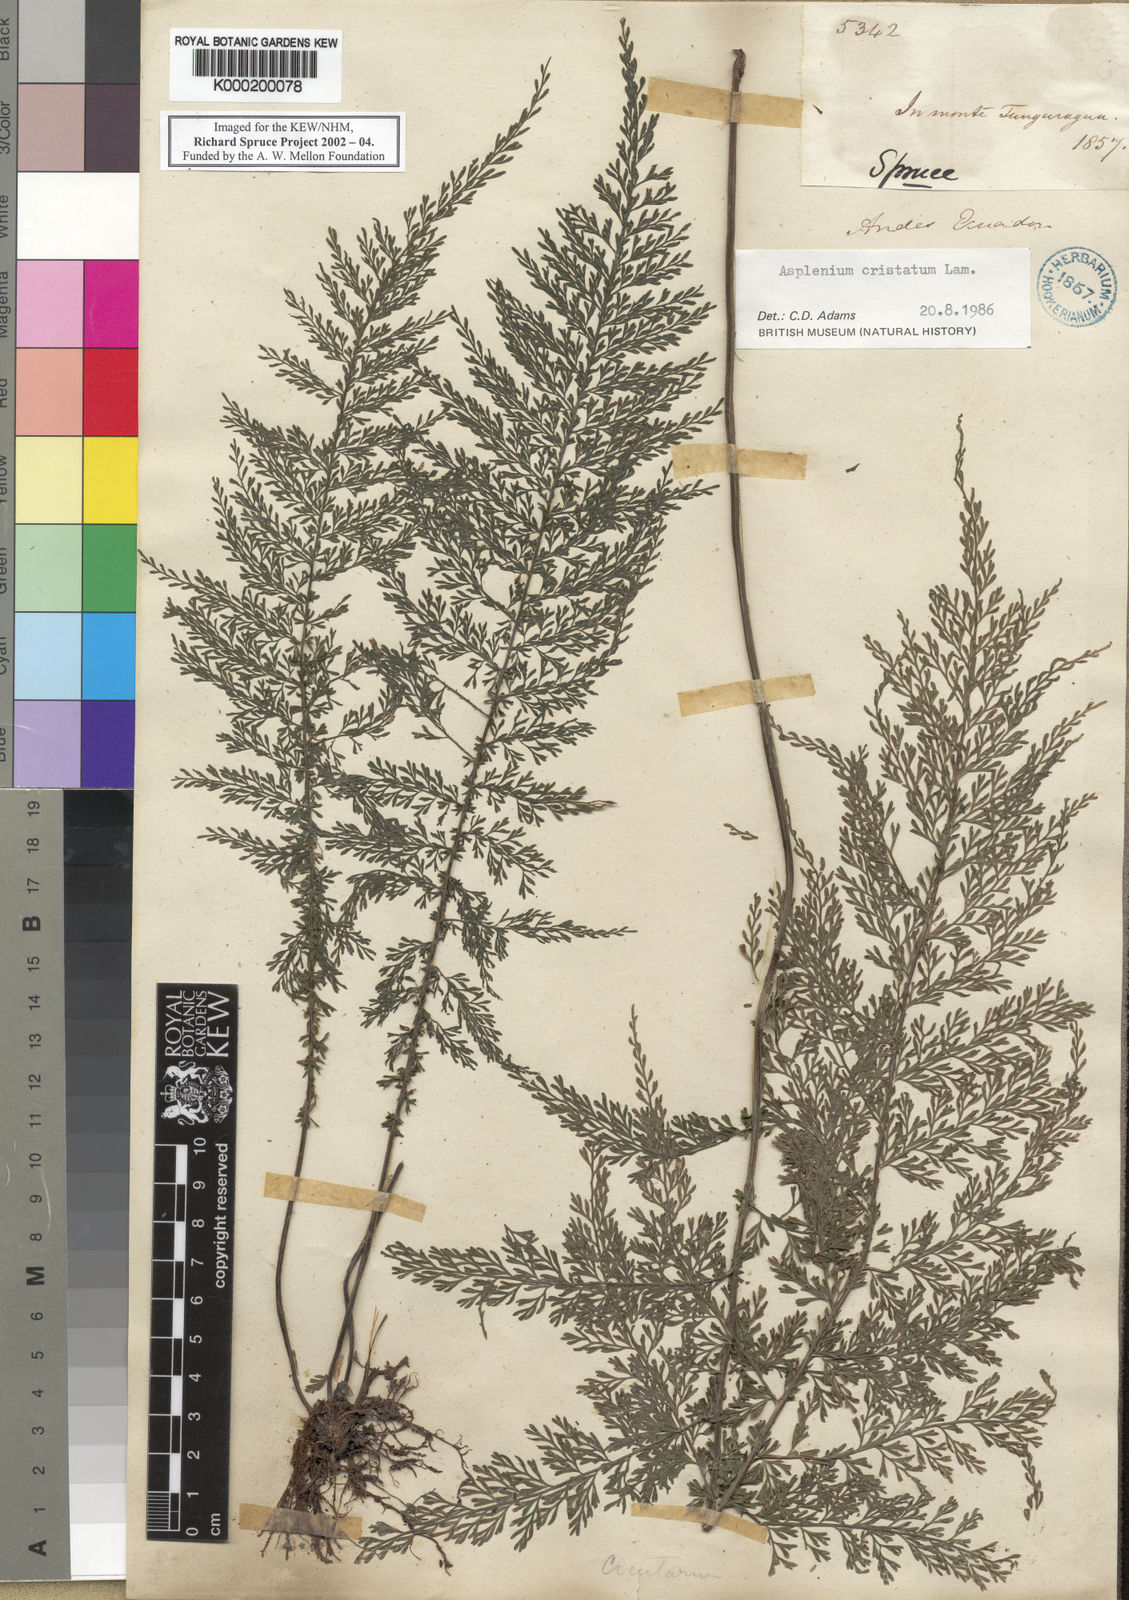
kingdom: Plantae
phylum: Tracheophyta
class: Polypodiopsida
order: Polypodiales
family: Aspleniaceae
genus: Asplenium
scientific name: Asplenium cristatum
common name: Parsley spleenwort
